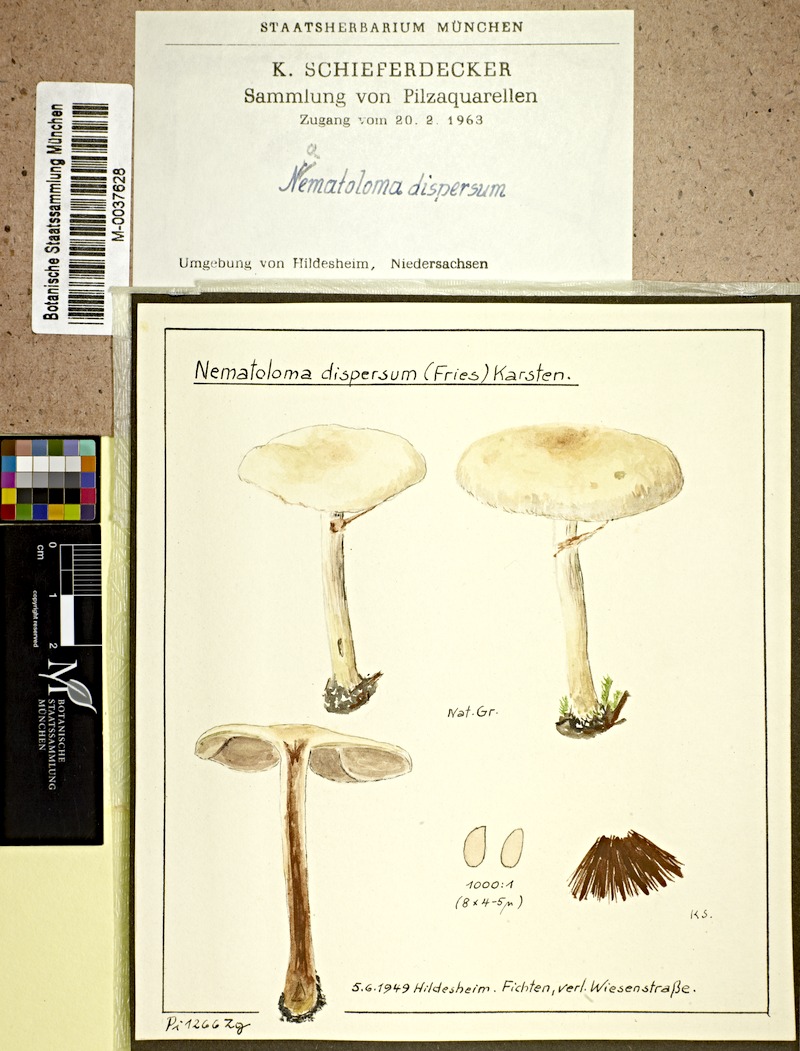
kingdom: Fungi
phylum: Basidiomycota
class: Agaricomycetes
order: Agaricales
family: Strophariaceae
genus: Hypholoma
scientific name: Hypholoma marginatum
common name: Snakeskin brownie
